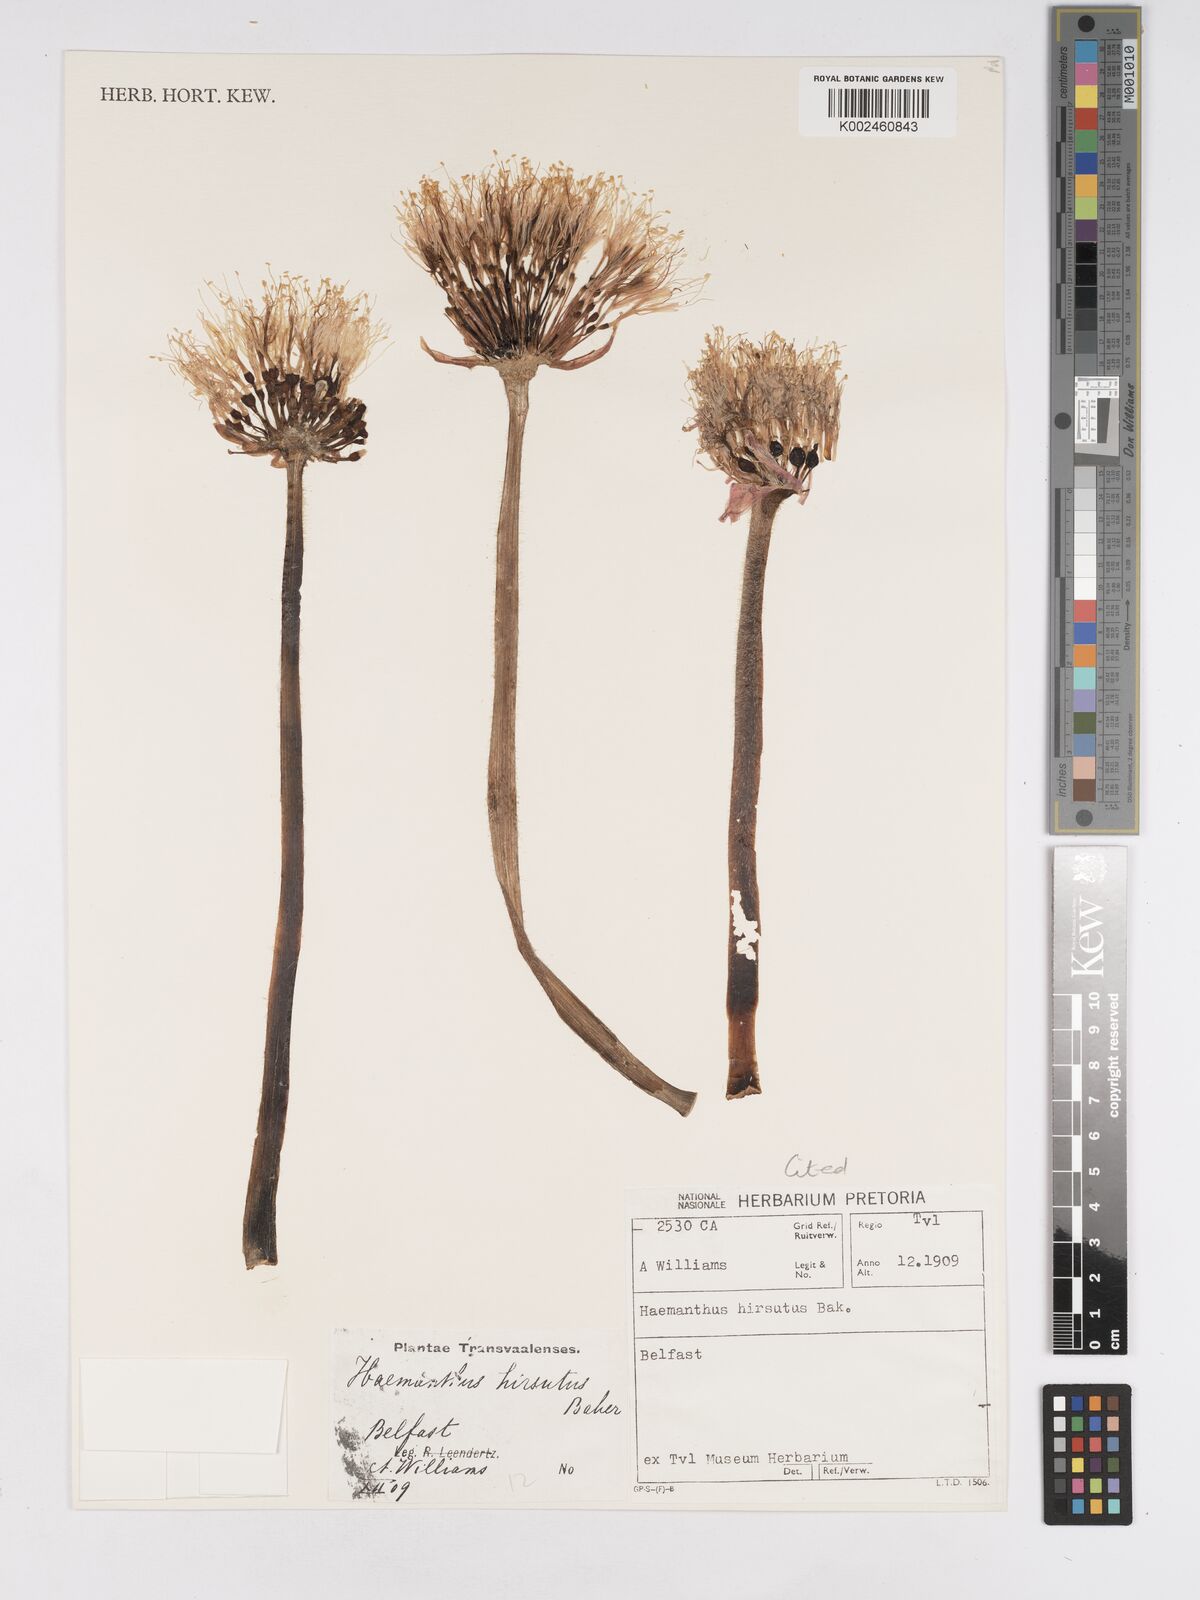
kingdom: Plantae
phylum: Tracheophyta
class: Liliopsida
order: Asparagales
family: Amaryllidaceae
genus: Haemanthus
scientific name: Haemanthus humilis
